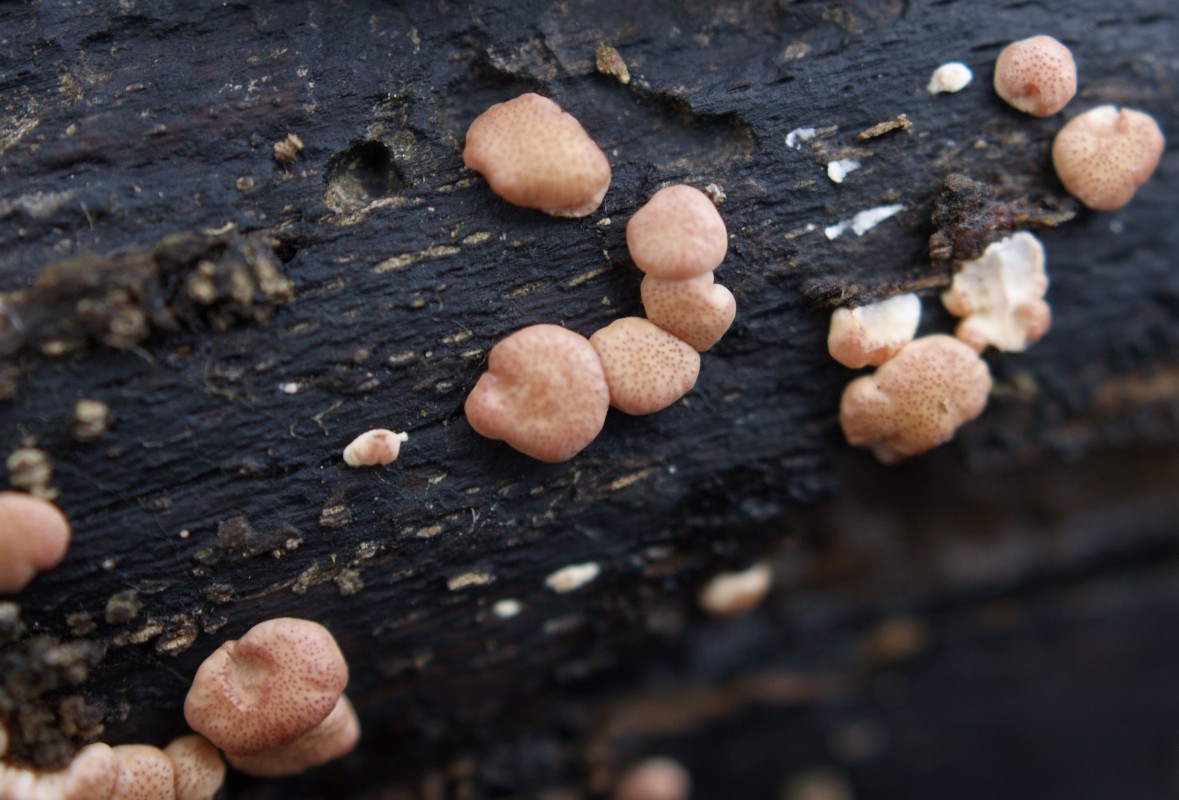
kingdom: Fungi
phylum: Ascomycota
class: Sordariomycetes
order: Hypocreales
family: Hypocreaceae
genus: Trichoderma
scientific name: Trichoderma europaeum
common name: rosabrun kødkerne
